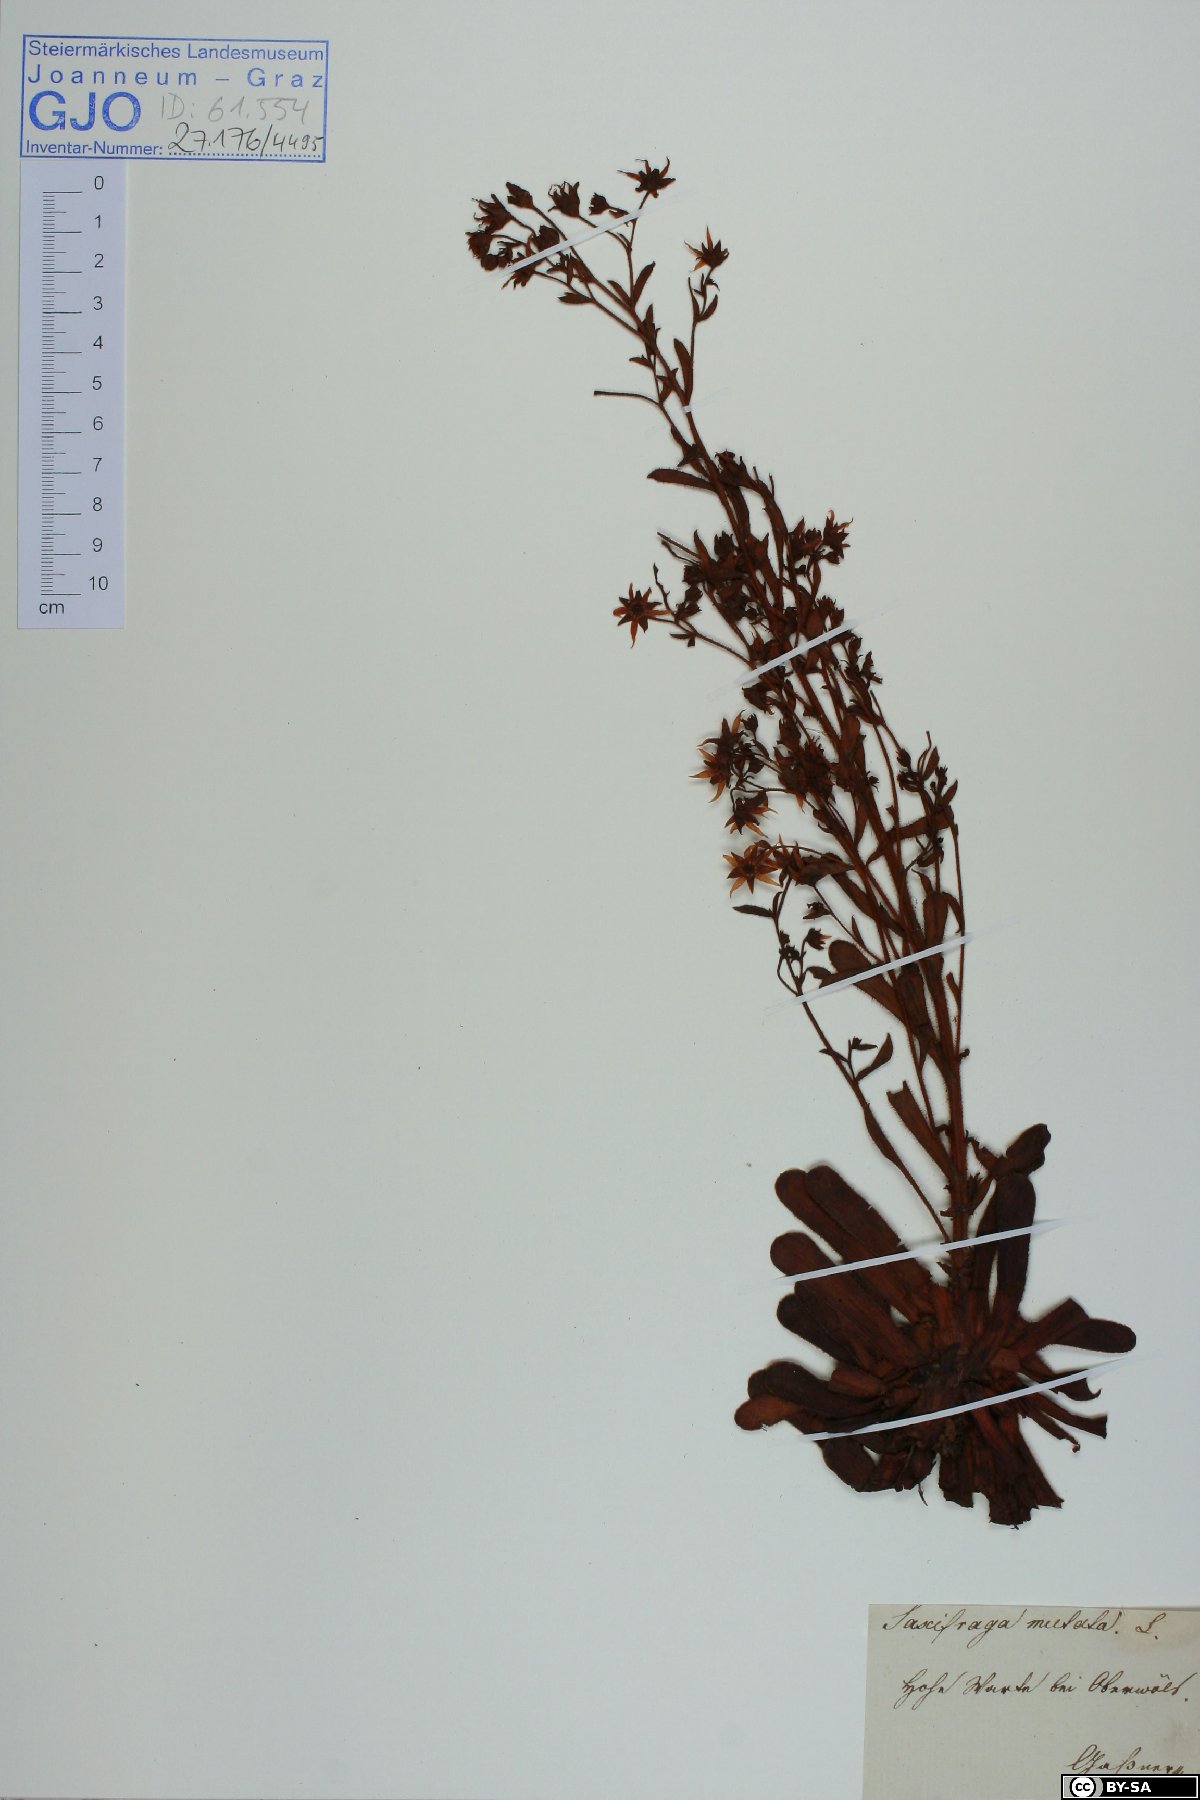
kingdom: Plantae
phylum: Tracheophyta
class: Magnoliopsida
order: Saxifragales
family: Saxifragaceae
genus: Saxifraga
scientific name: Saxifraga mutata
